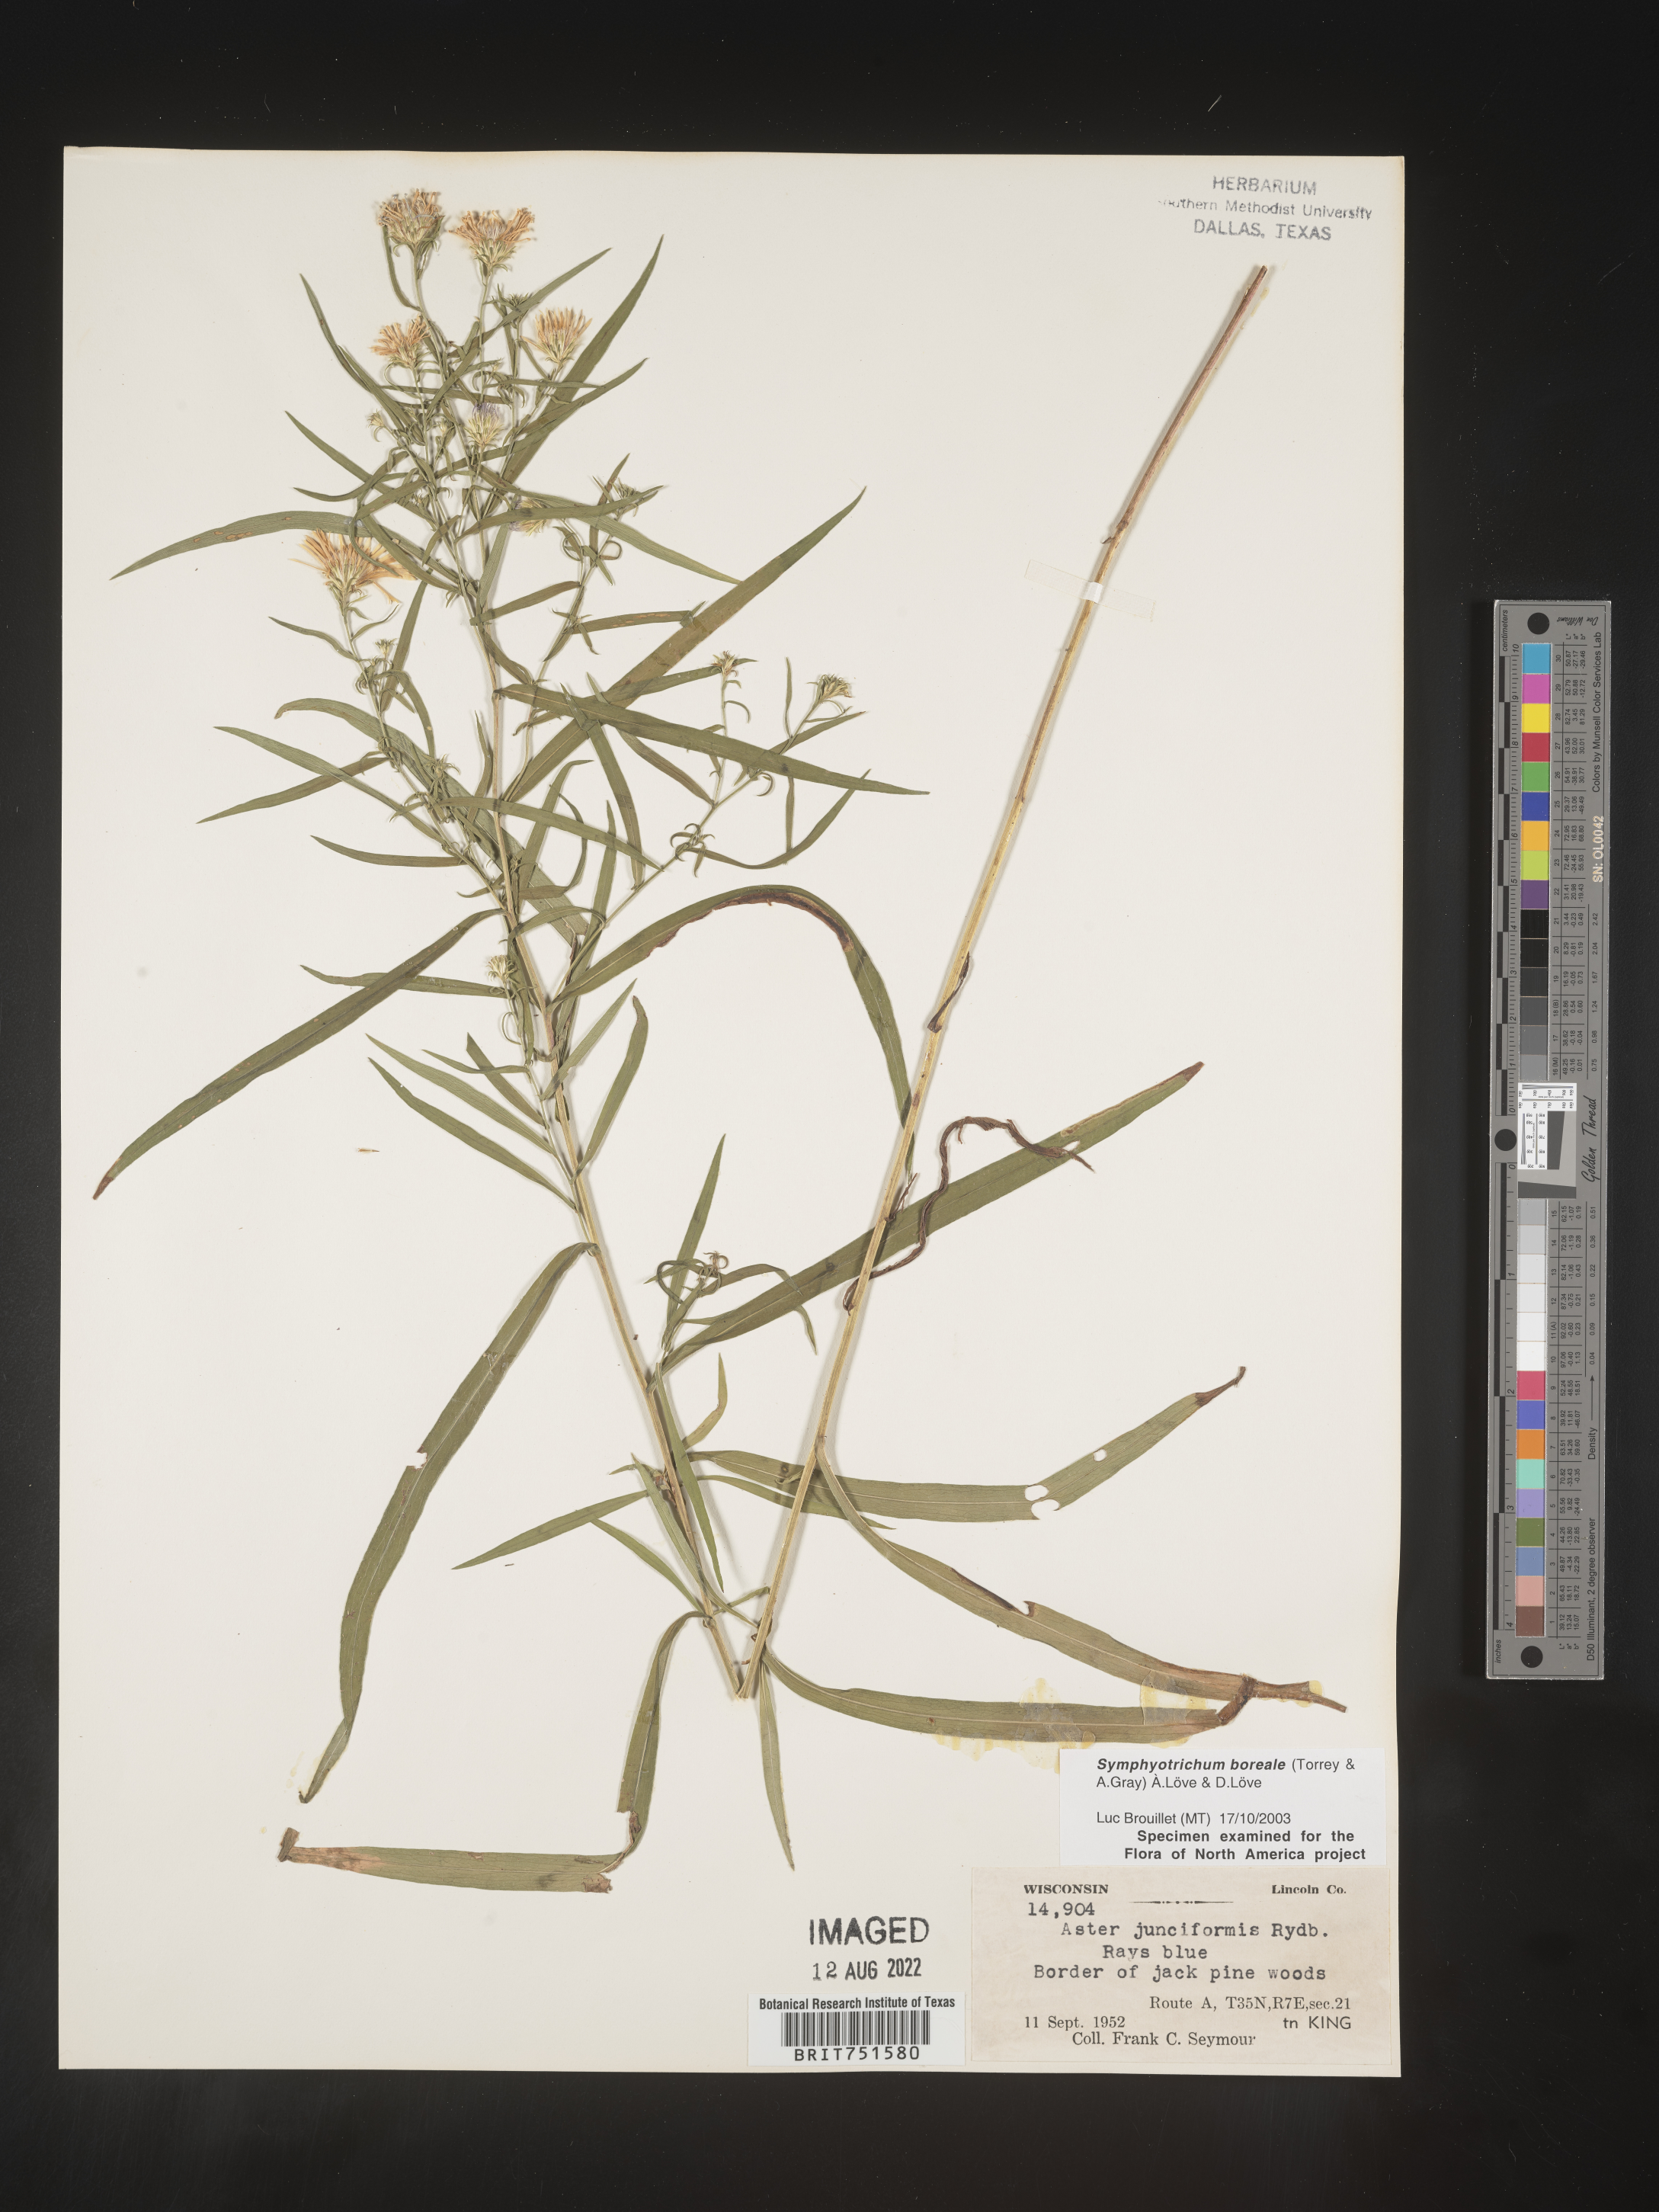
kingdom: Plantae
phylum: Tracheophyta
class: Magnoliopsida
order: Asterales
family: Asteraceae
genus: Symphyotrichum
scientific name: Symphyotrichum boreale
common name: Northern bog aster
